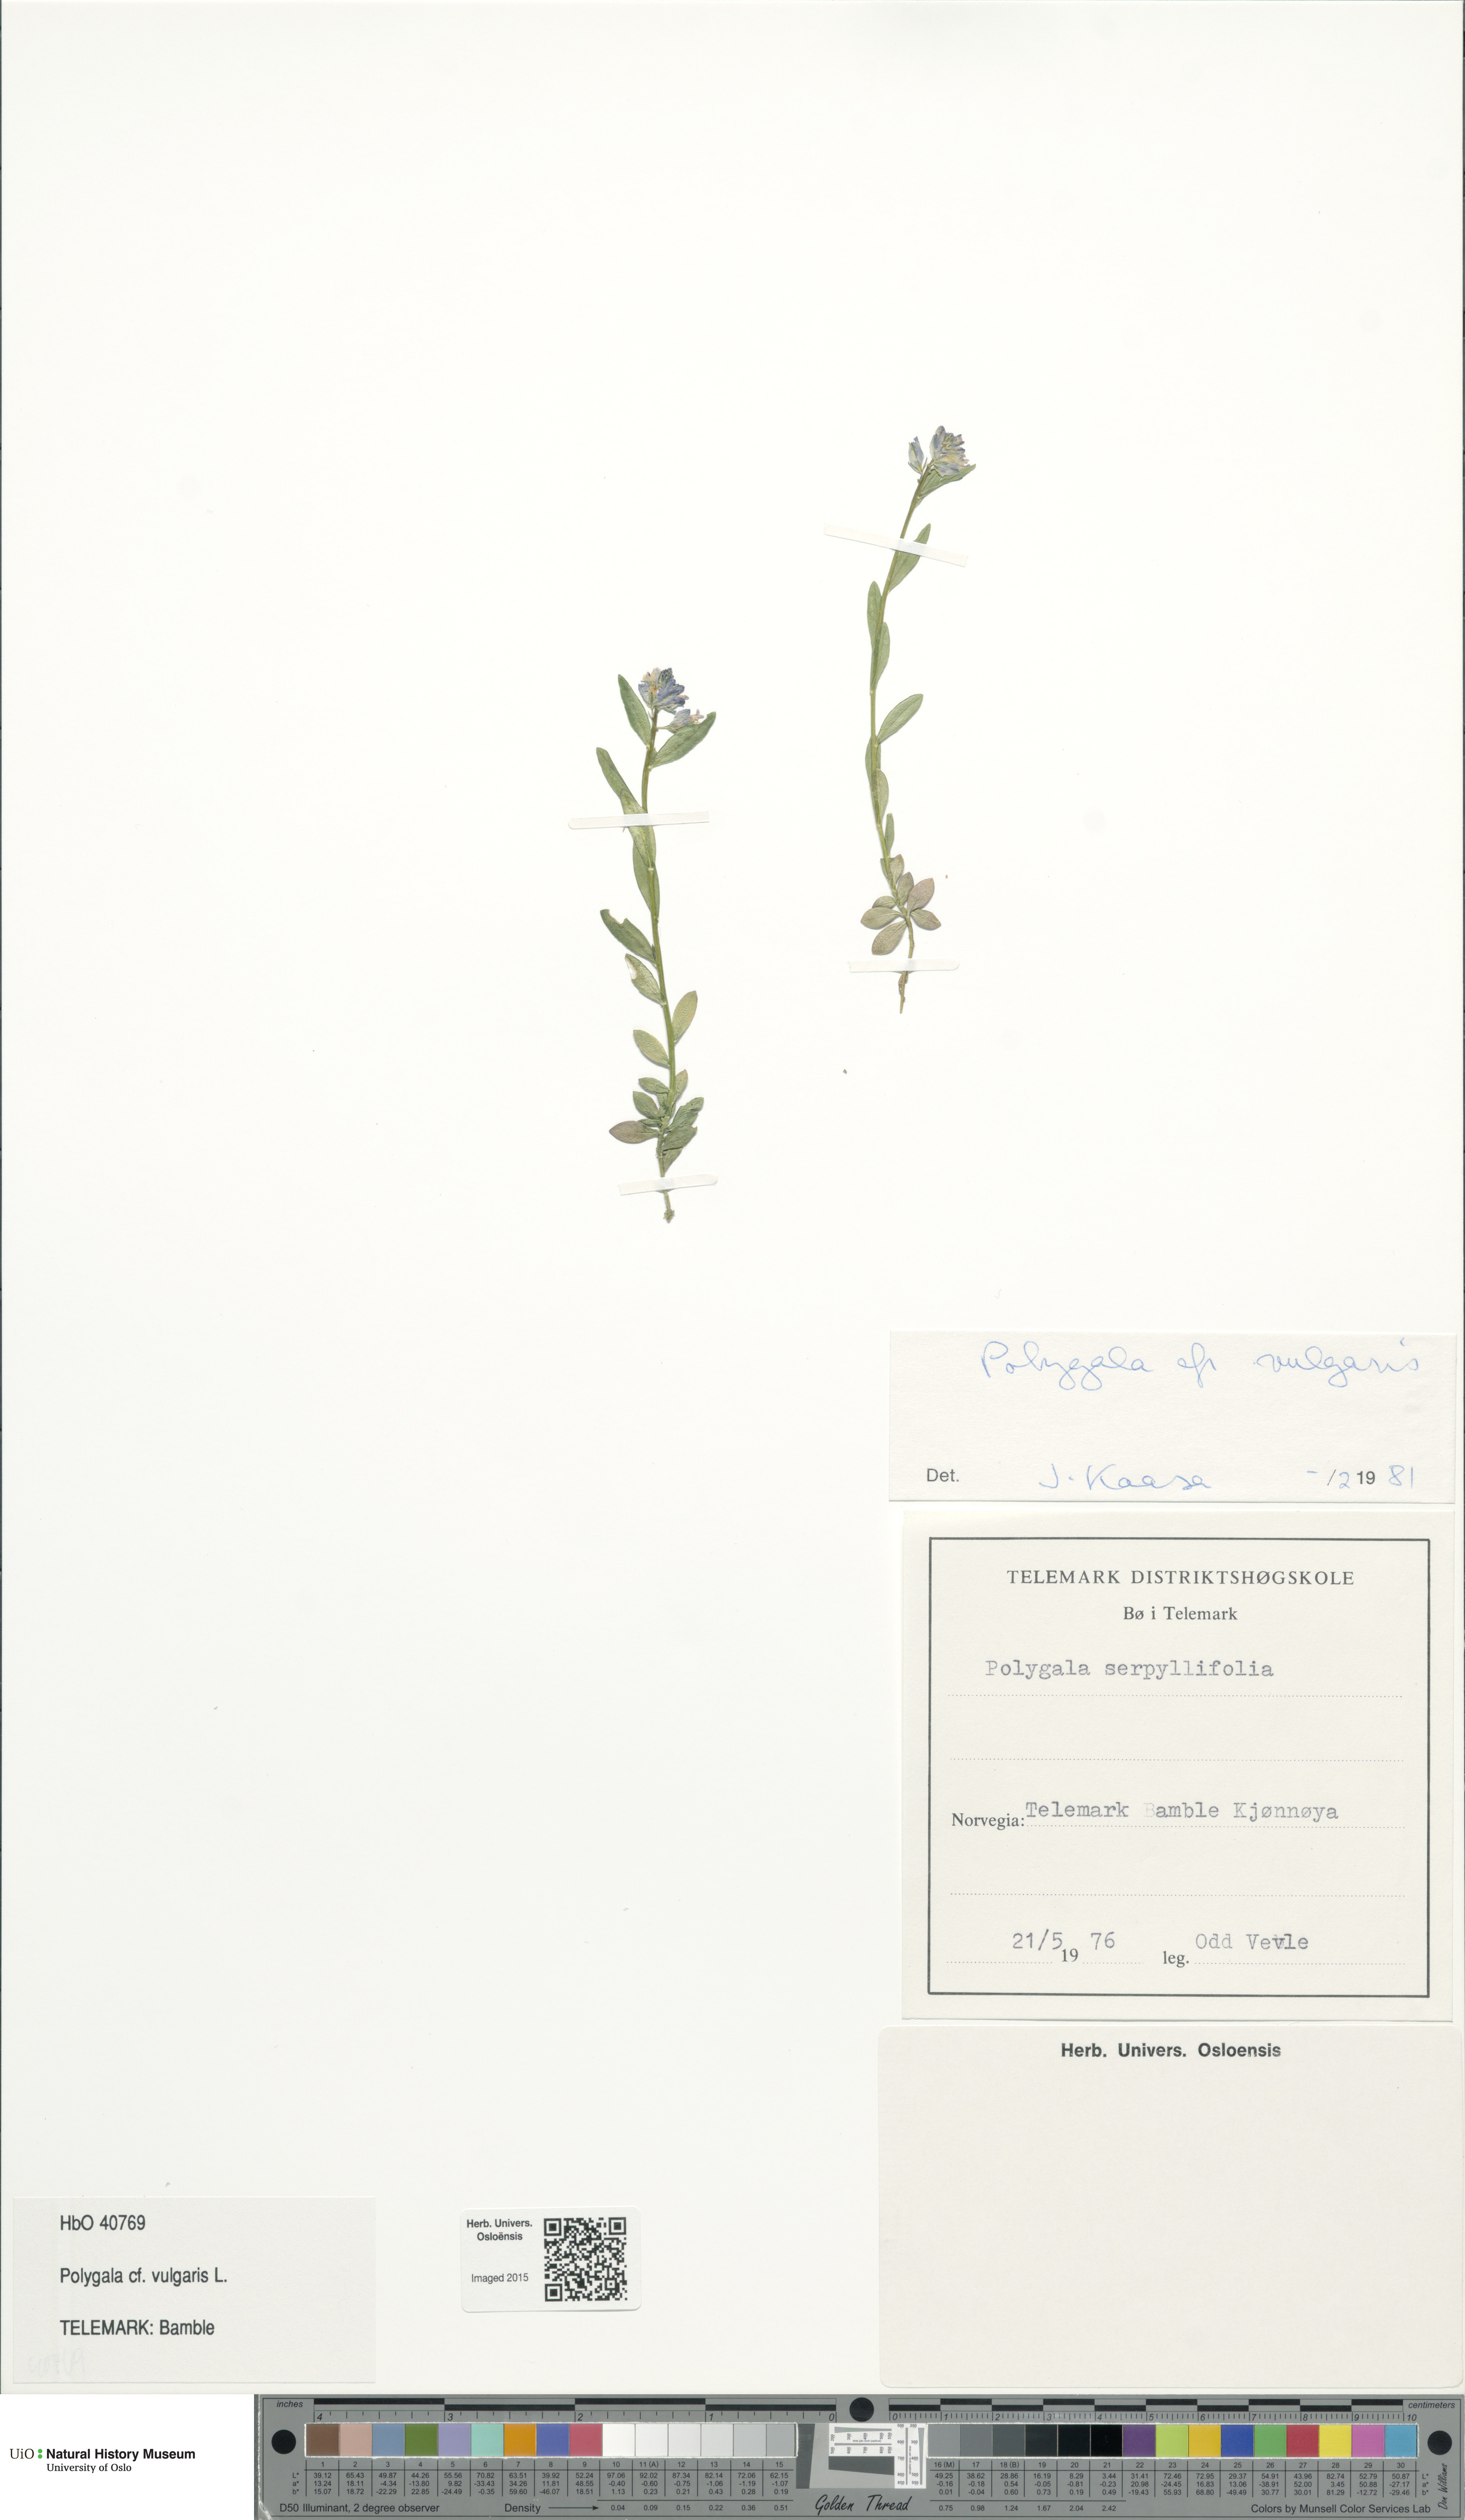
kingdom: Plantae
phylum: Tracheophyta
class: Magnoliopsida
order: Fabales
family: Polygalaceae
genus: Polygala
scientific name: Polygala vulgaris
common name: Common milkwort
